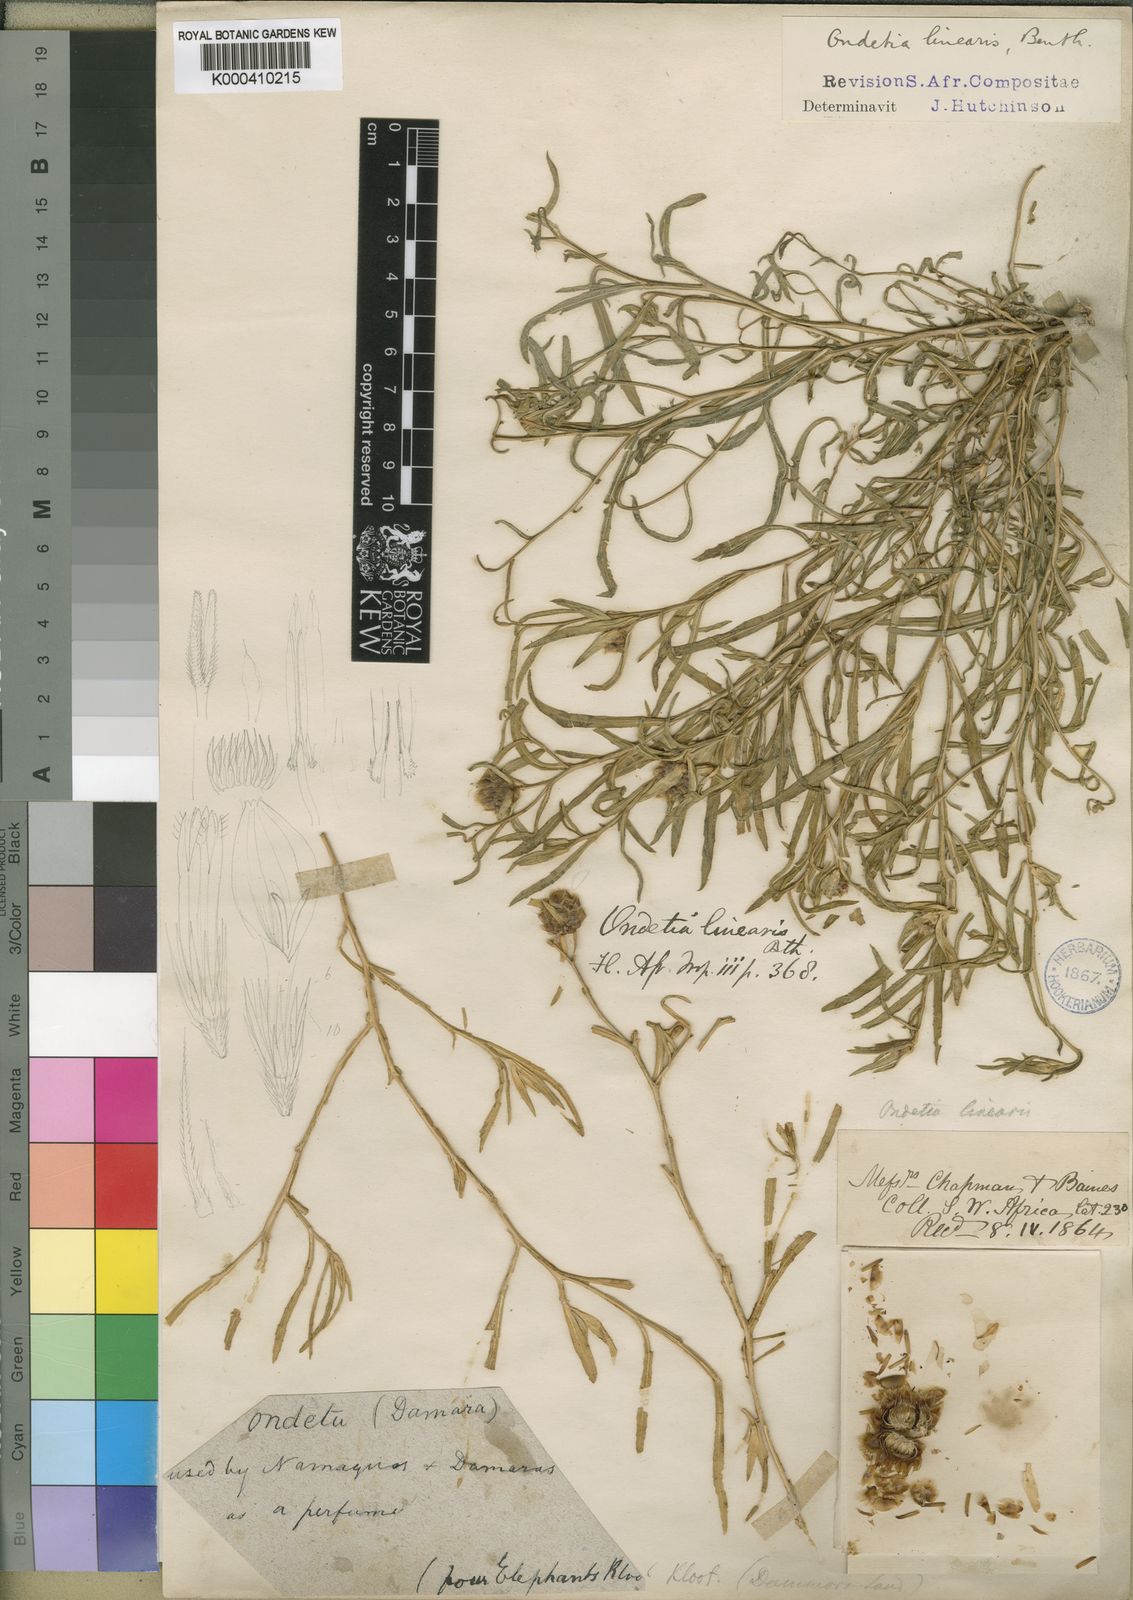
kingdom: Plantae
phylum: Tracheophyta
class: Magnoliopsida
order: Asterales
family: Asteraceae
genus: Ondetia
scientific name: Ondetia linearis
